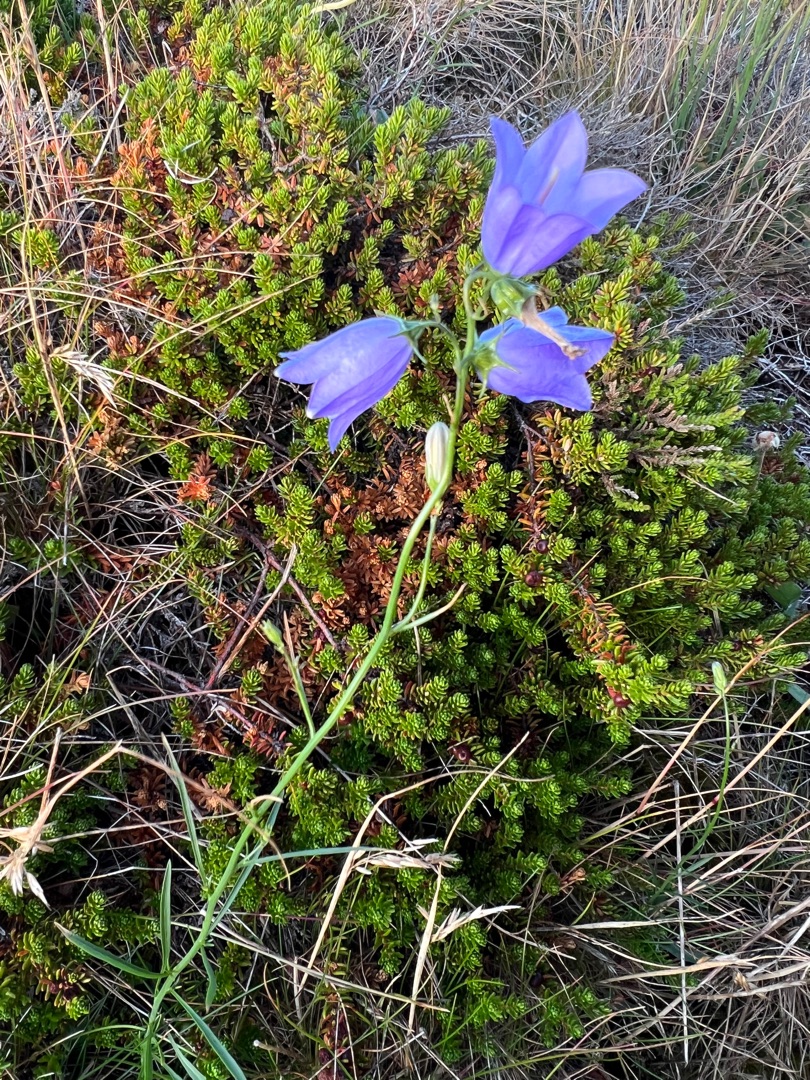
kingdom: Plantae
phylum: Tracheophyta
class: Magnoliopsida
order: Asterales
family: Campanulaceae
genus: Campanula
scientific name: Campanula rotundifolia
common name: Liden klokke
